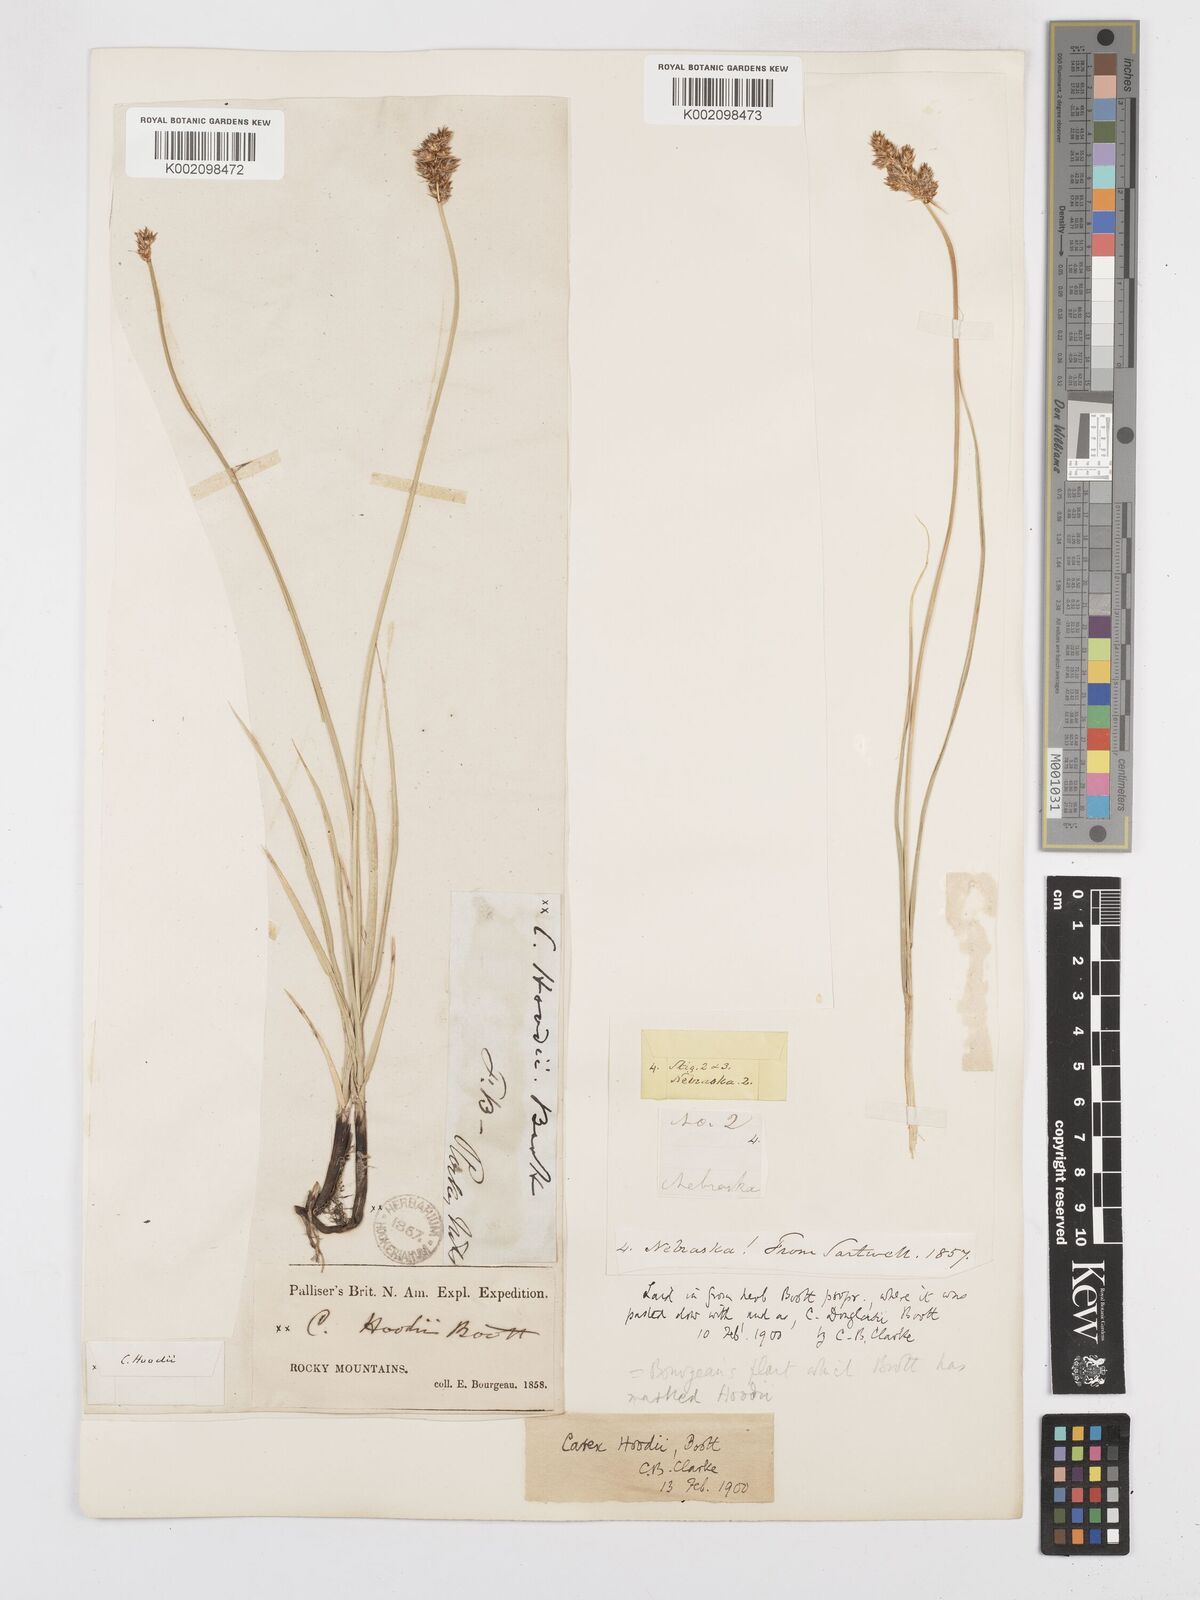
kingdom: Plantae
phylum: Tracheophyta
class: Liliopsida
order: Poales
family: Cyperaceae
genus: Carex
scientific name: Carex hoodii
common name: Hood's sedge
